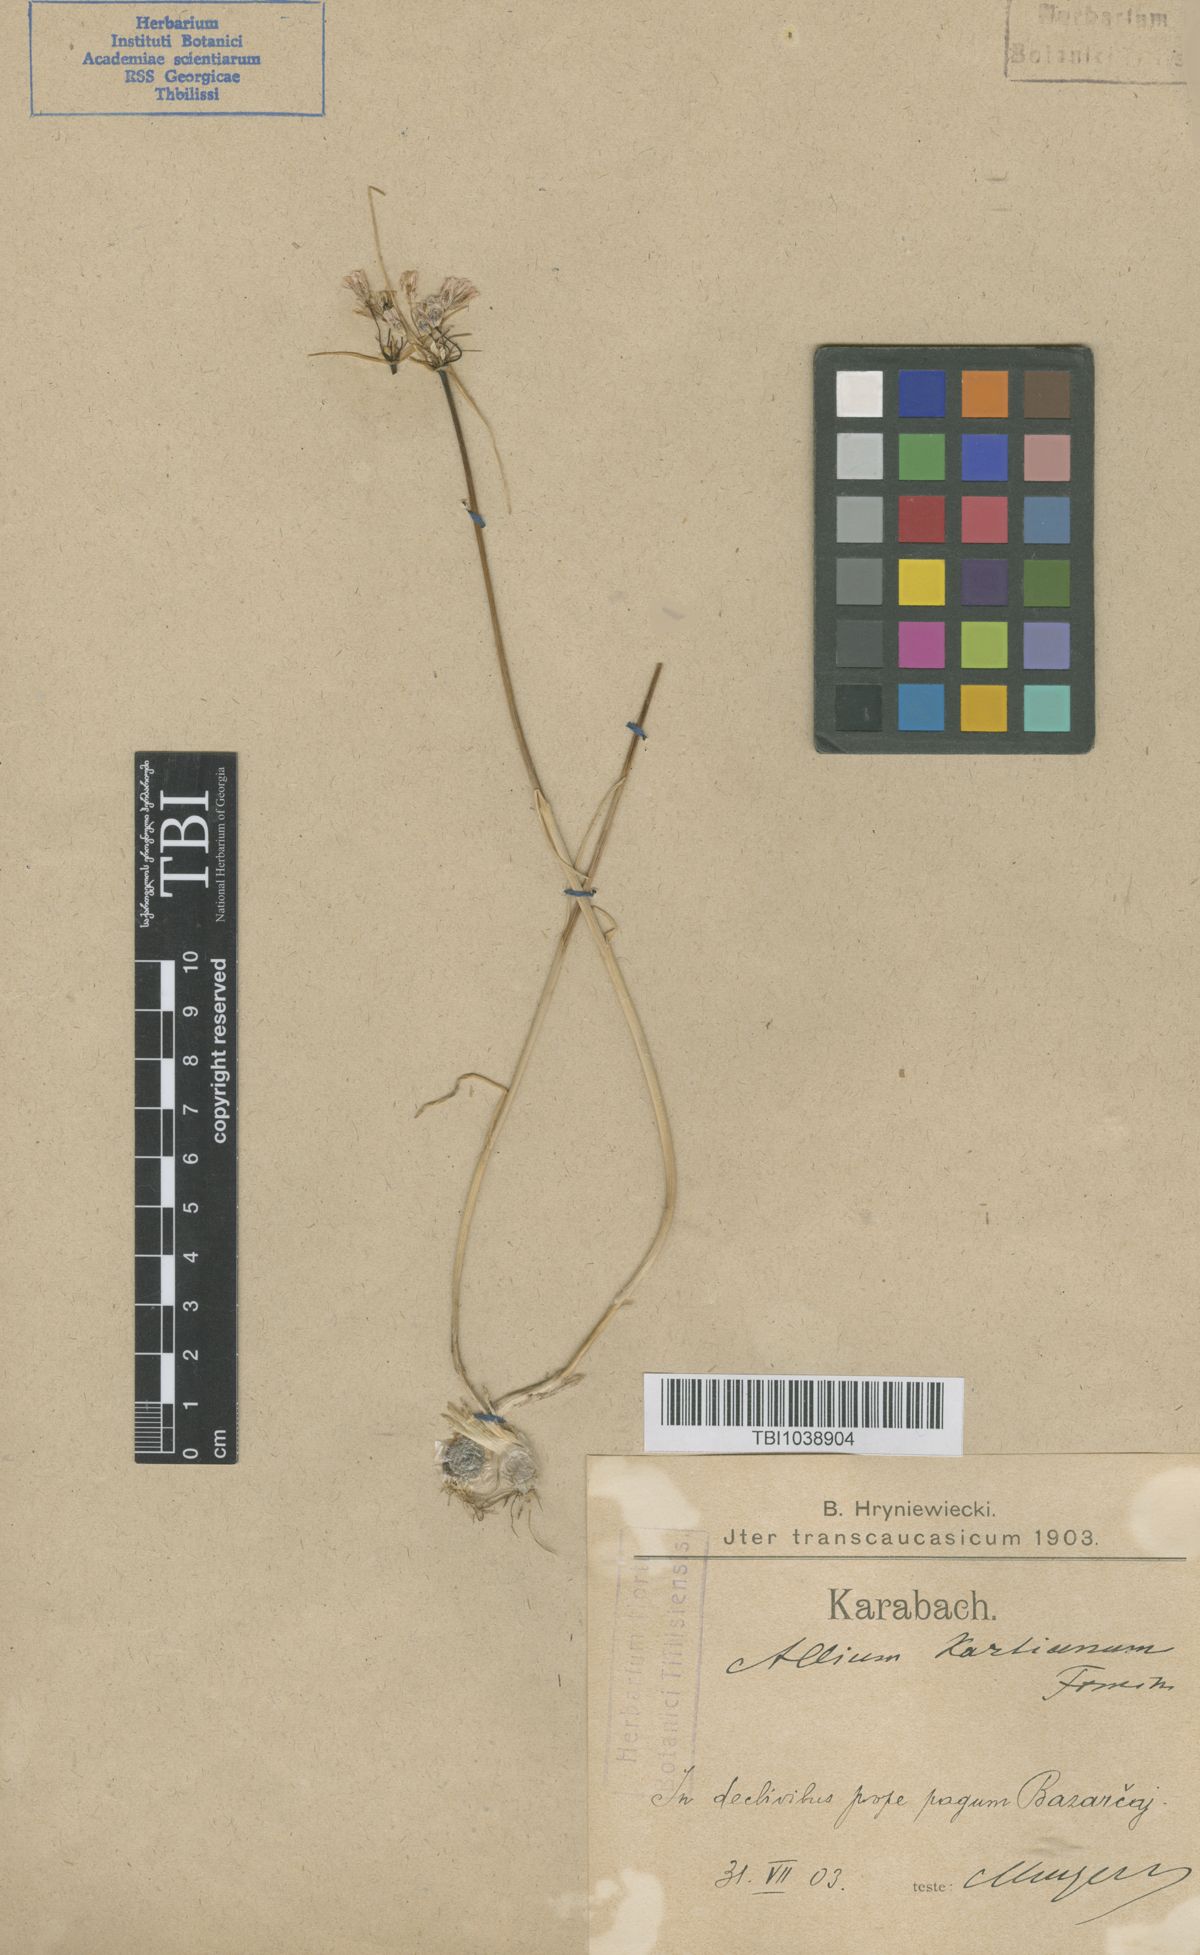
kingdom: Plantae
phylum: Tracheophyta
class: Liliopsida
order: Asparagales
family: Amaryllidaceae
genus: Allium
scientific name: Allium paniculatum
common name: Pale garlic
